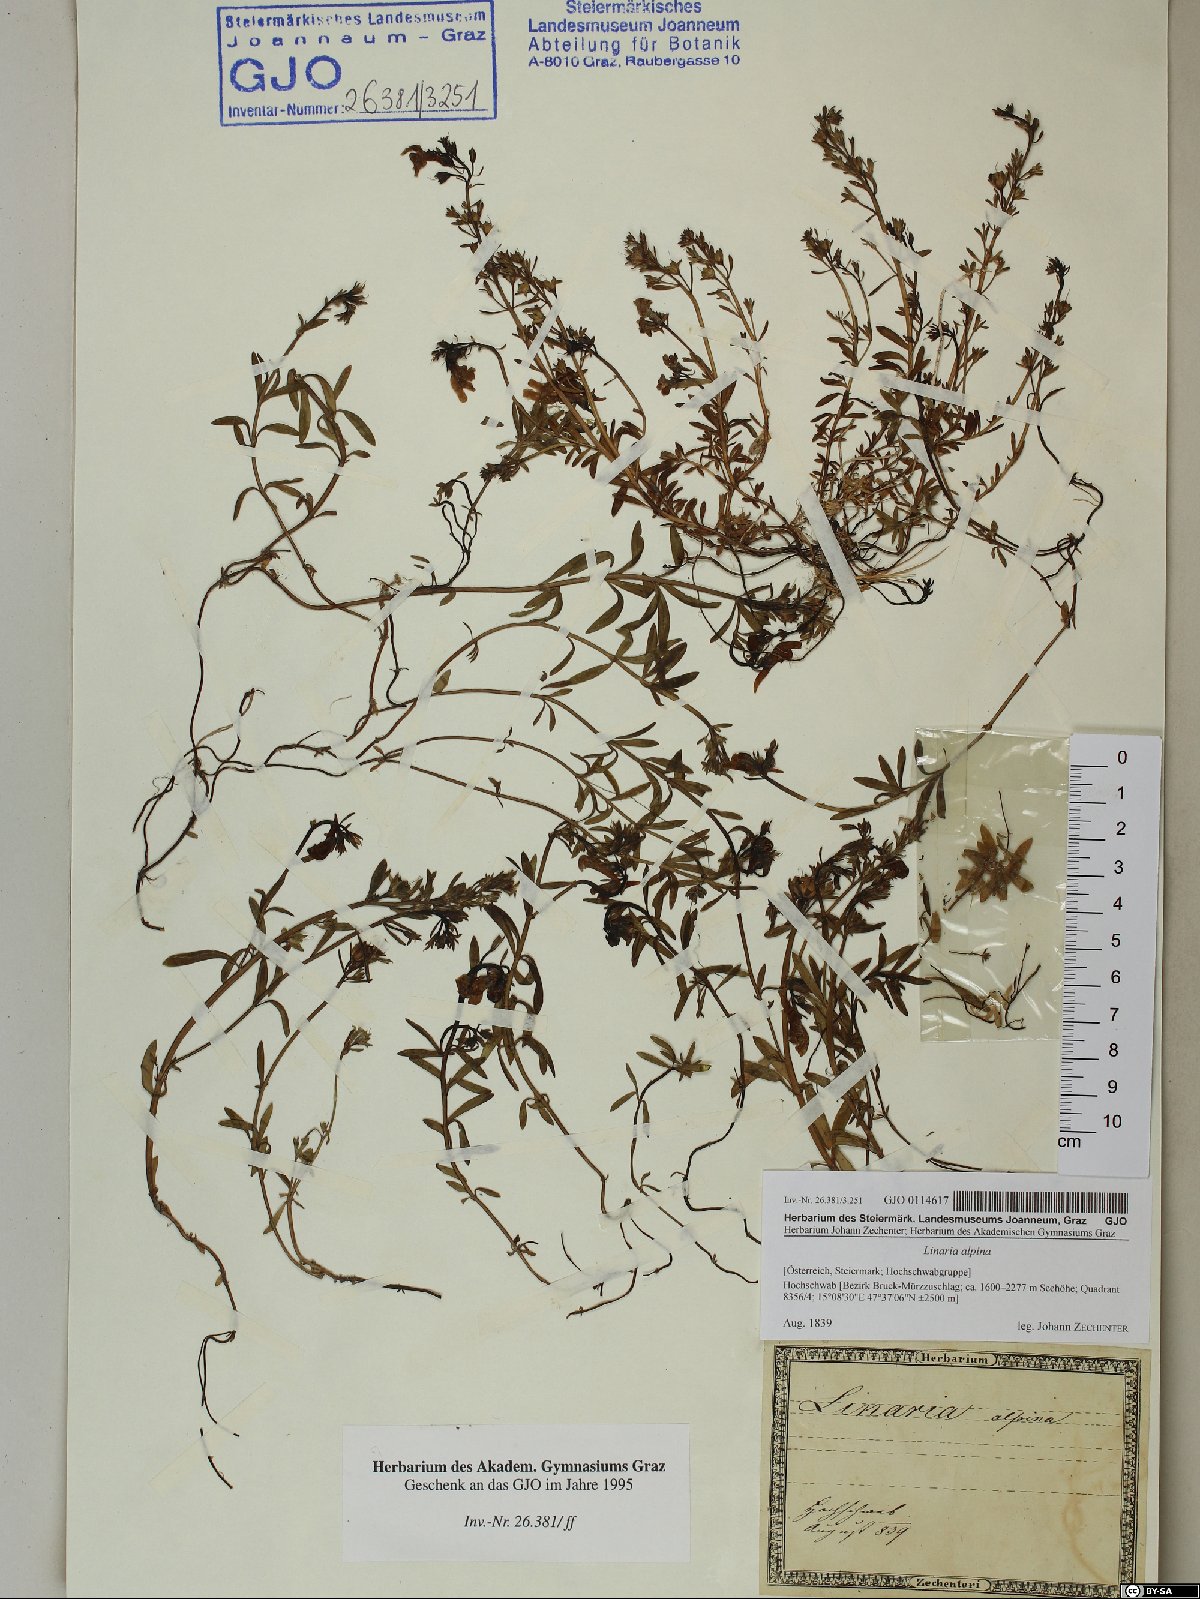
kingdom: Plantae
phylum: Tracheophyta
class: Magnoliopsida
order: Lamiales
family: Plantaginaceae
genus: Linaria
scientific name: Linaria alpina
